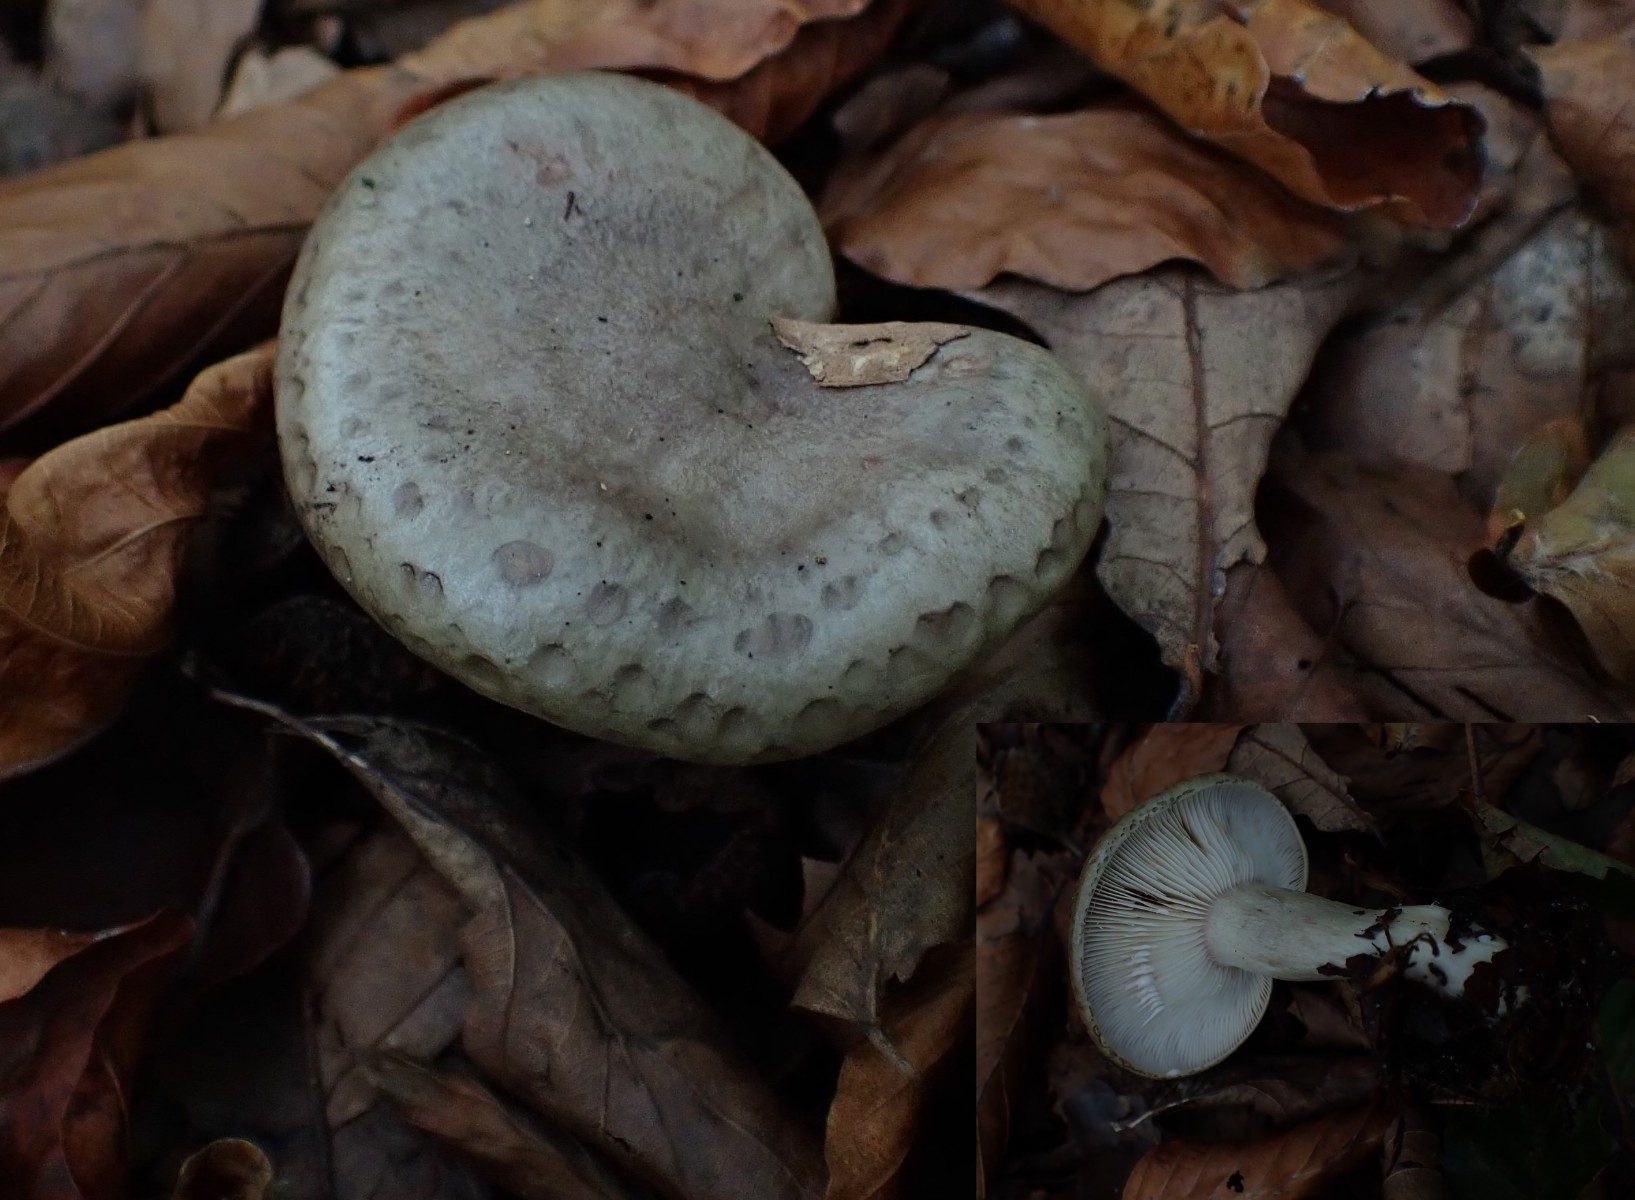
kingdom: Fungi
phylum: Basidiomycota
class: Agaricomycetes
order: Russulales
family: Russulaceae
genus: Lactarius
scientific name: Lactarius blennius
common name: dråbeplettet mælkehat
